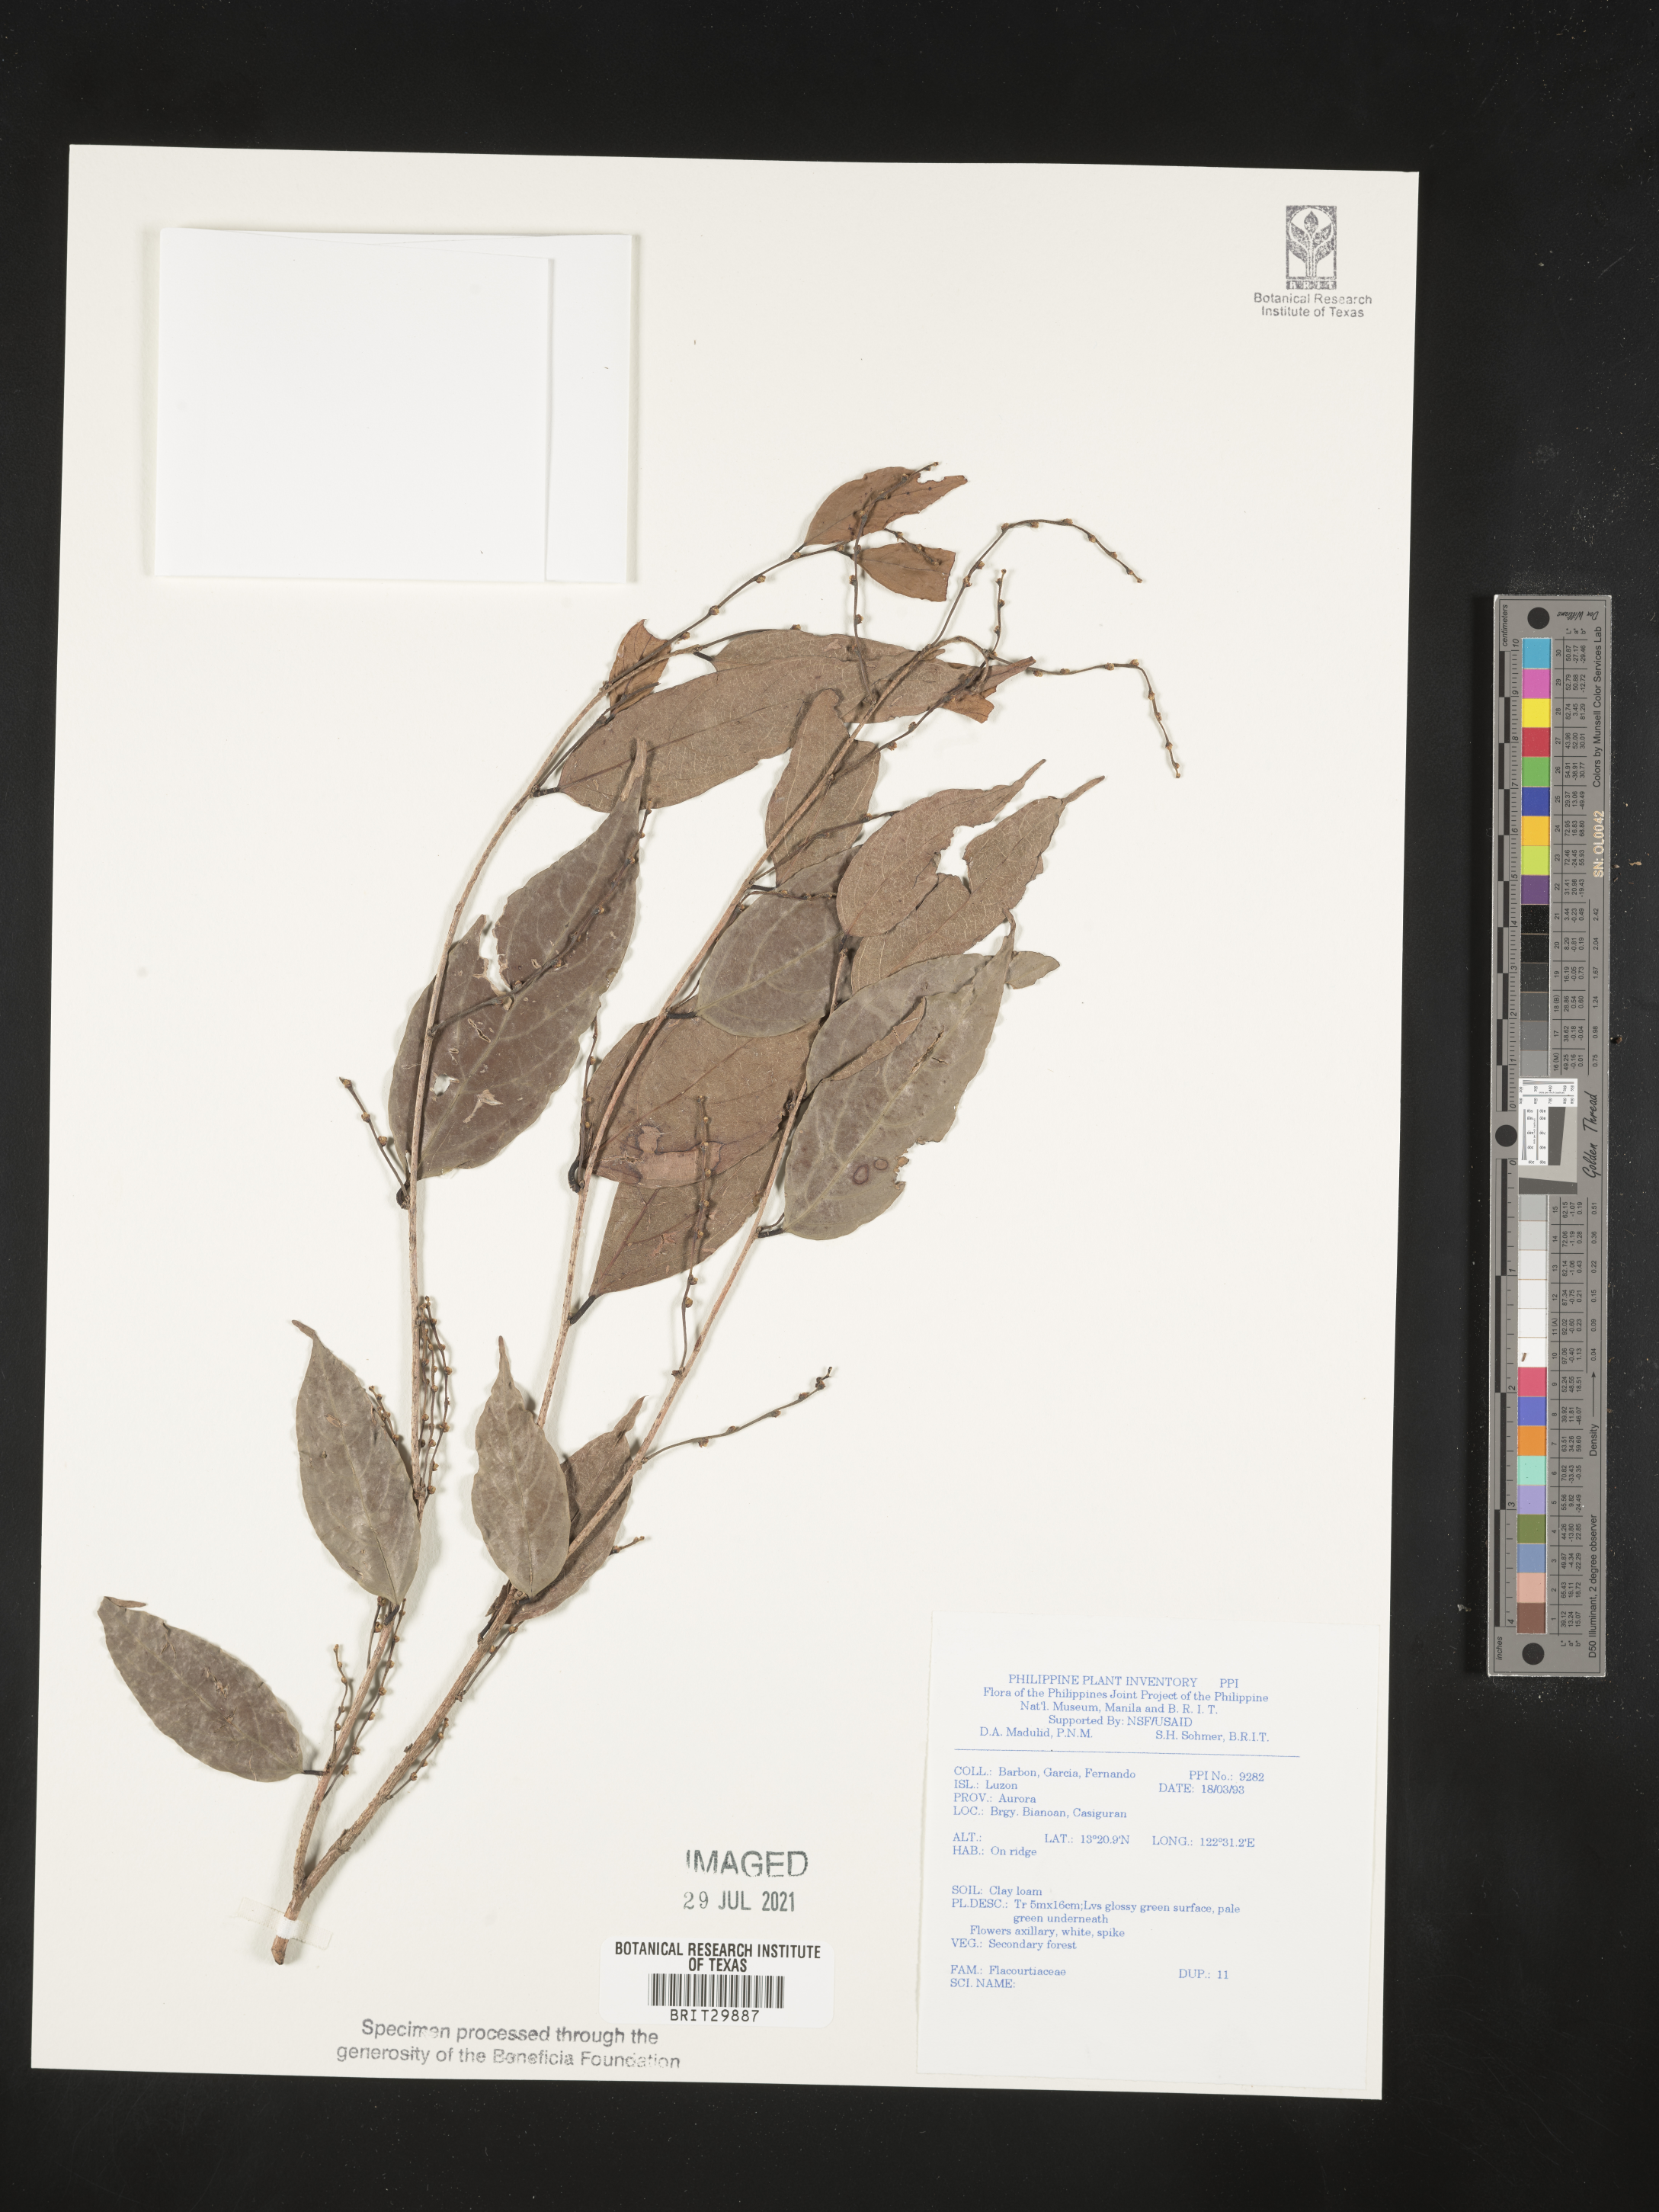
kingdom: Plantae
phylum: Tracheophyta
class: Magnoliopsida
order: Malpighiales
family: Flacourtiaceae
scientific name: Flacourtiaceae
